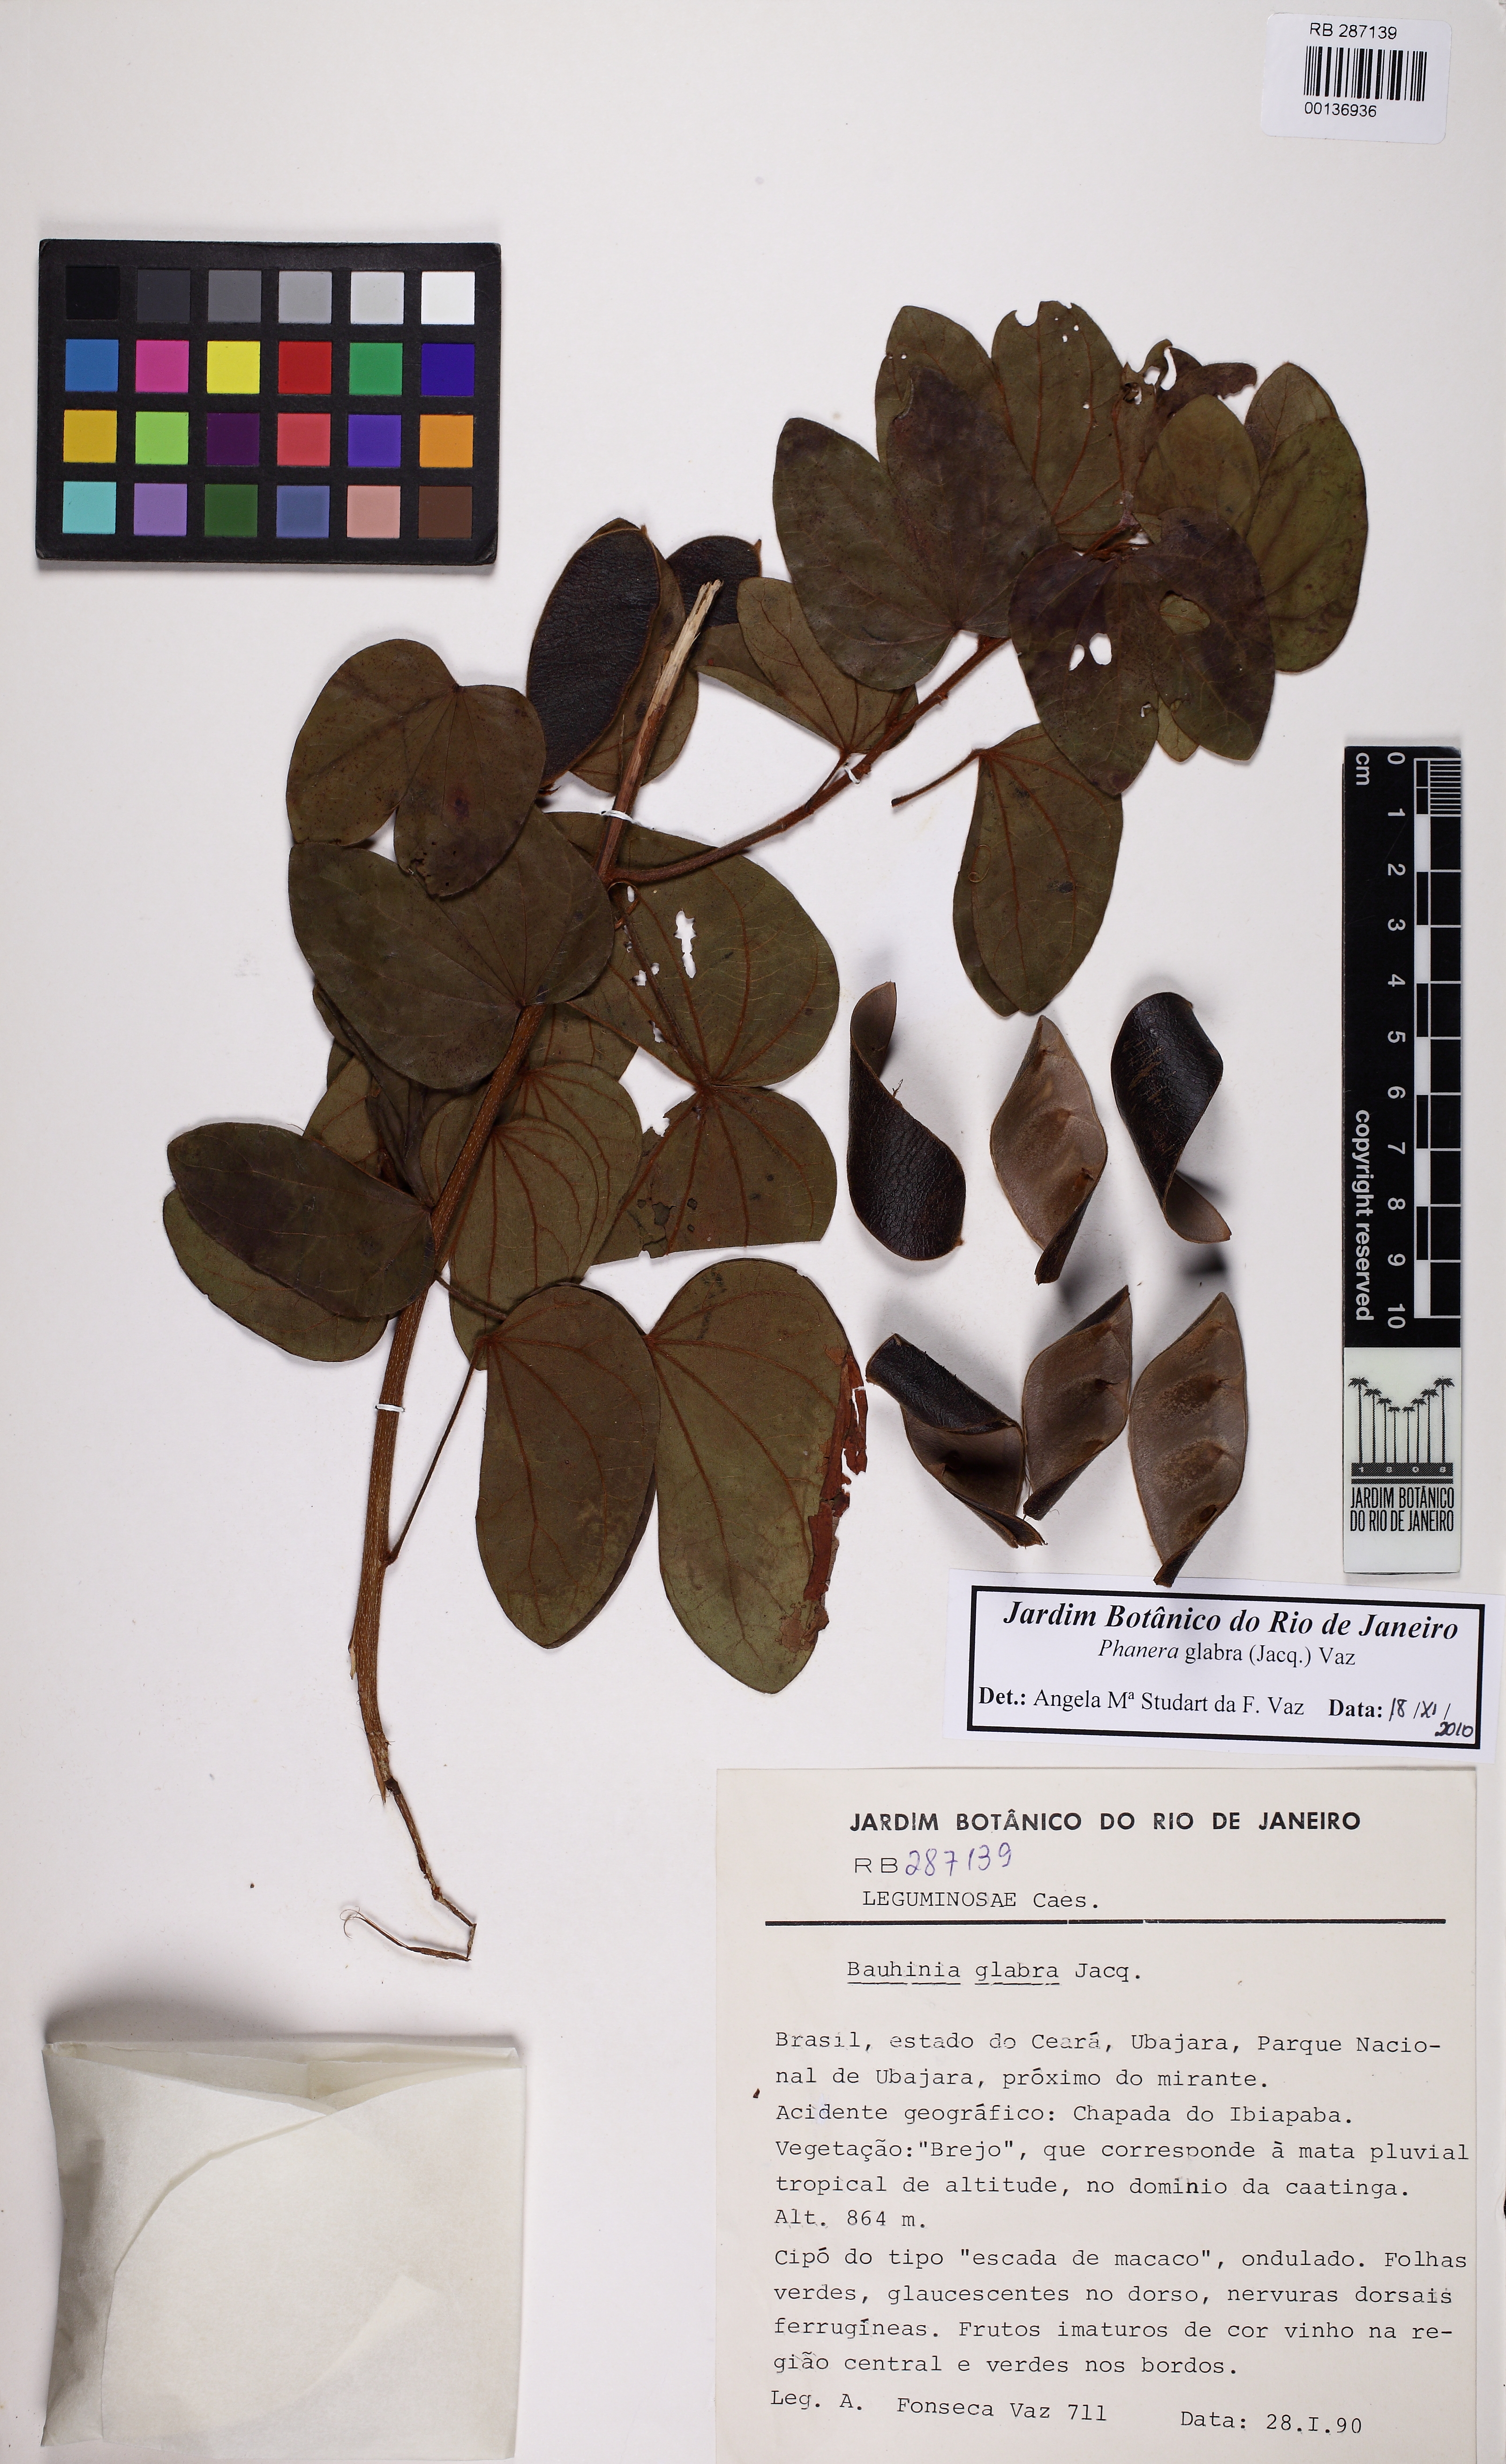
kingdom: Plantae
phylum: Tracheophyta
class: Magnoliopsida
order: Fabales
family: Fabaceae
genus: Schnella
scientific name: Schnella glabra
